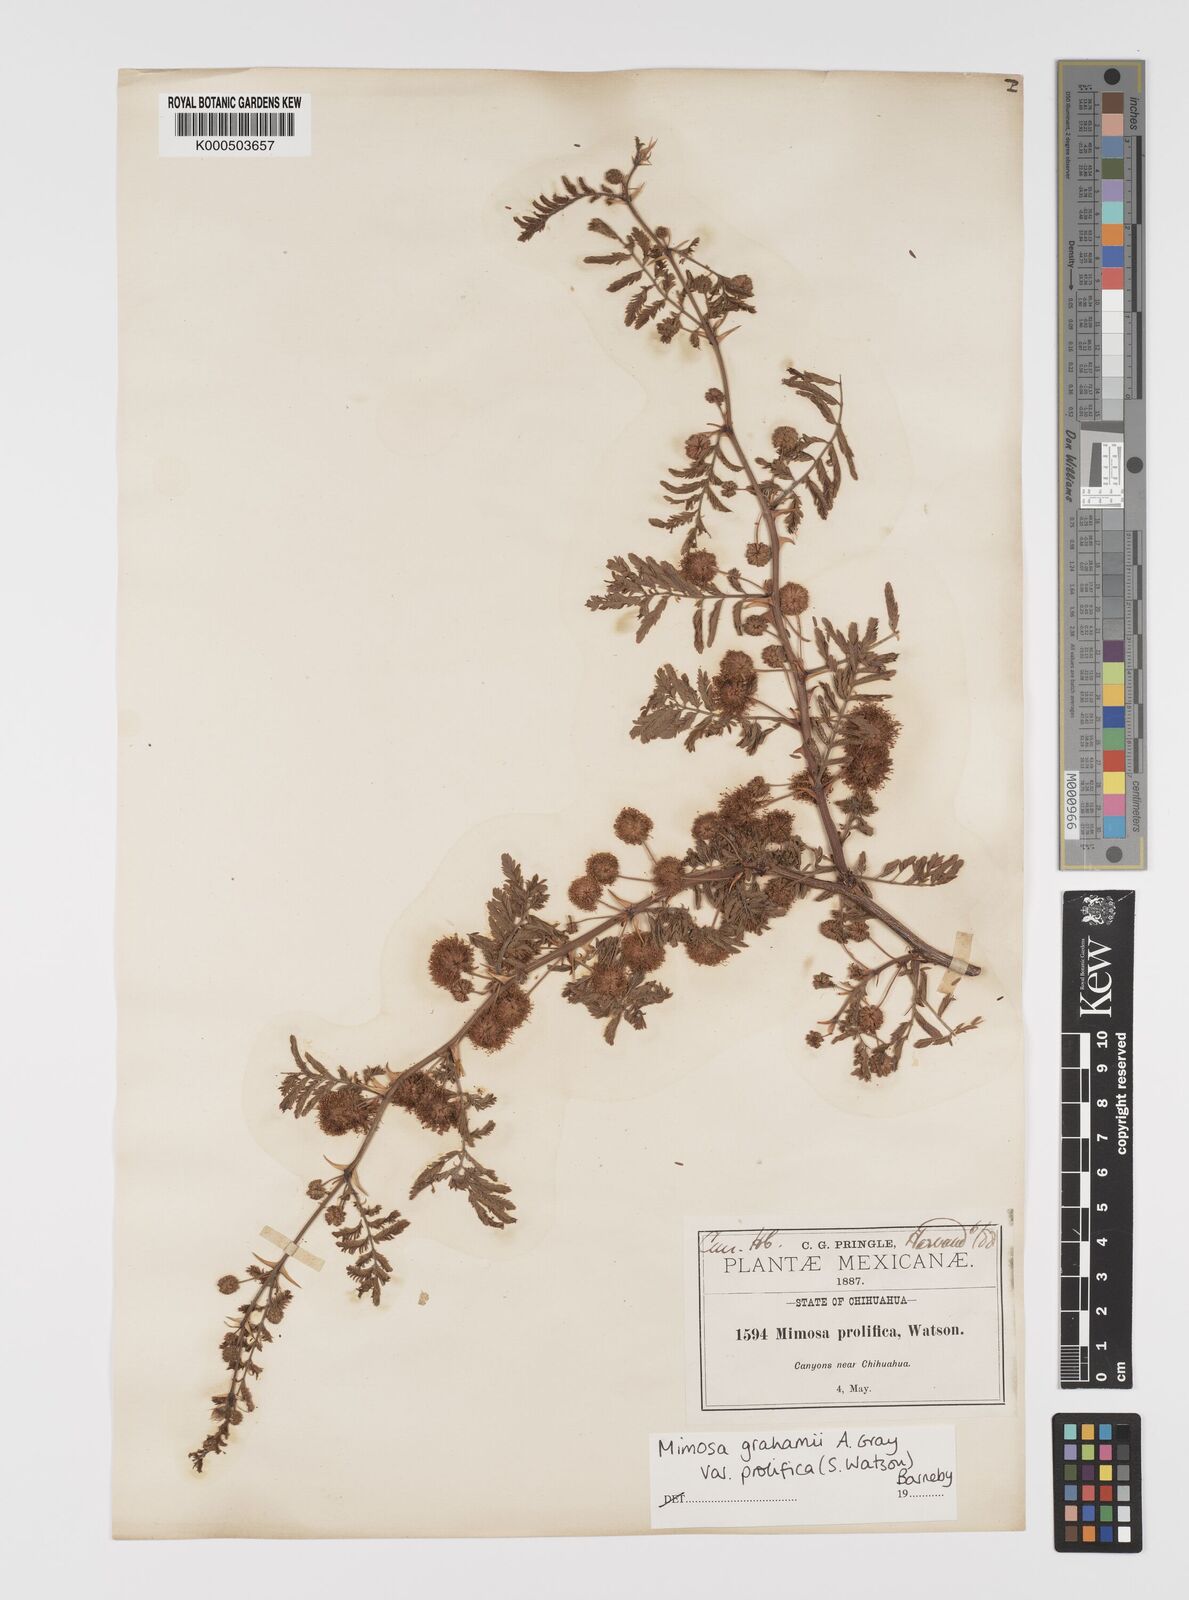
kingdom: Plantae
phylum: Tracheophyta
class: Magnoliopsida
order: Fabales
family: Fabaceae
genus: Mimosa
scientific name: Mimosa grahamii
